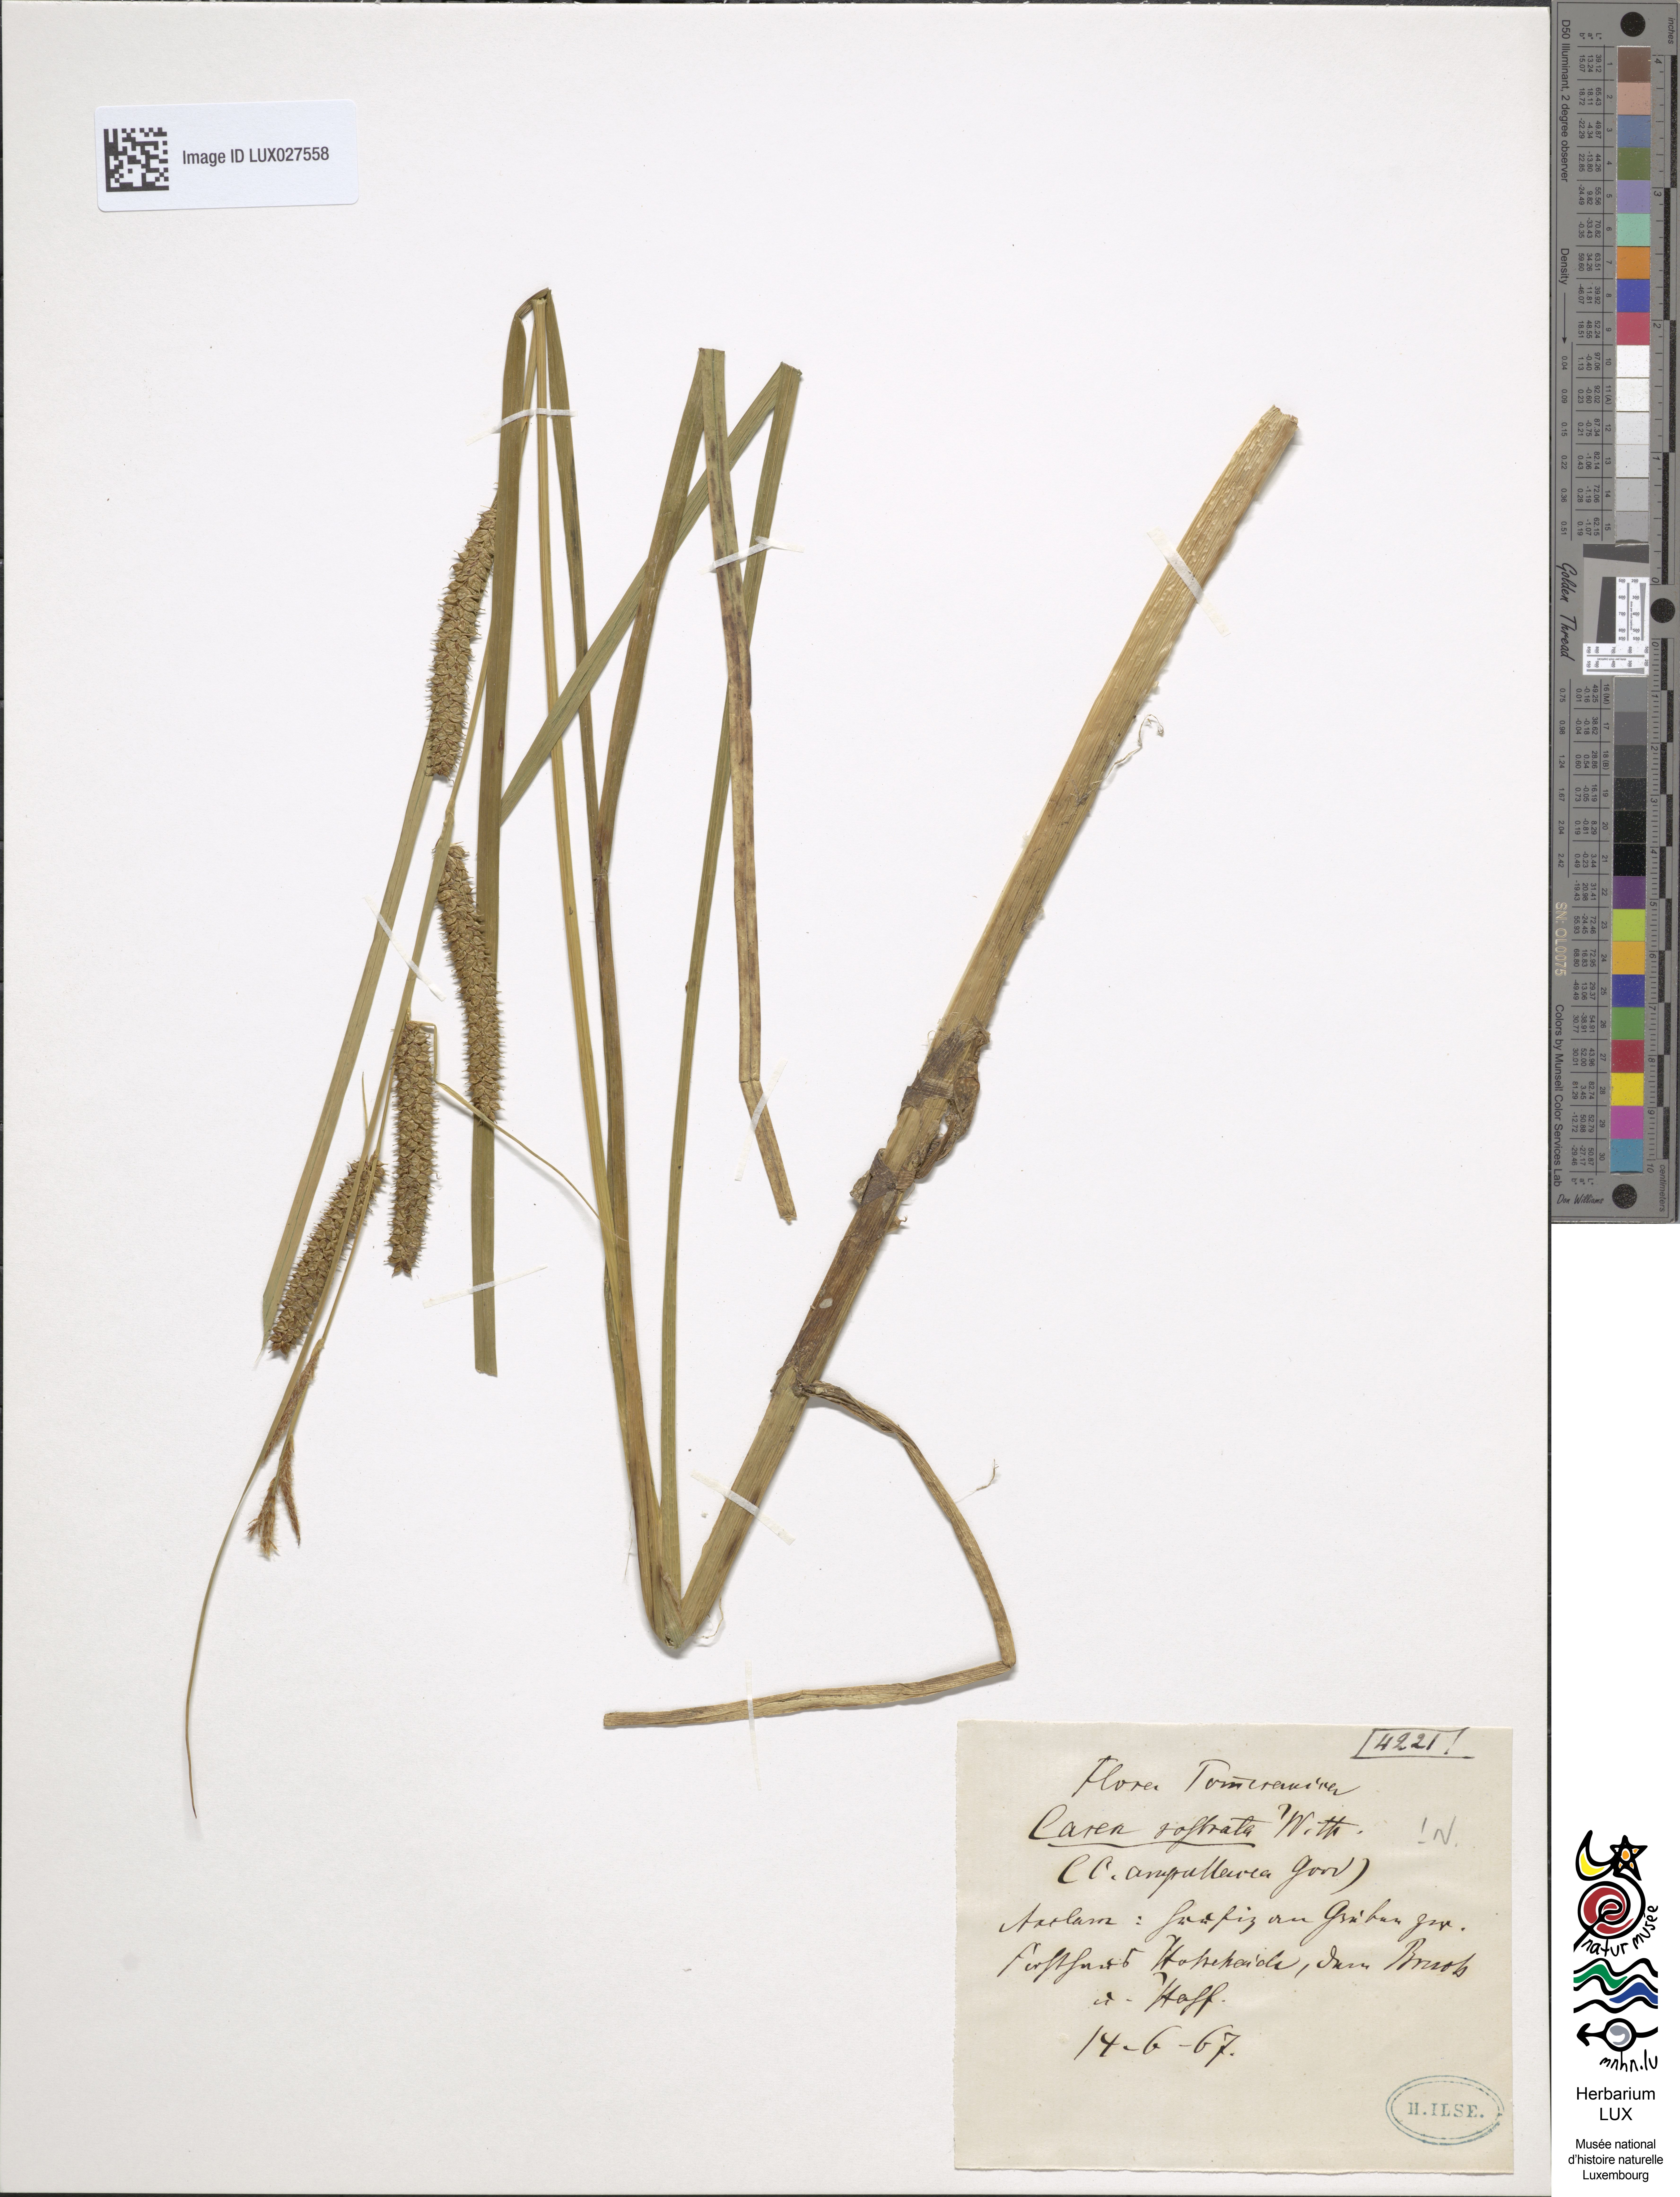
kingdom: Plantae
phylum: Tracheophyta
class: Liliopsida
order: Poales
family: Cyperaceae
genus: Carex
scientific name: Carex rostrata
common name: Bottle sedge
